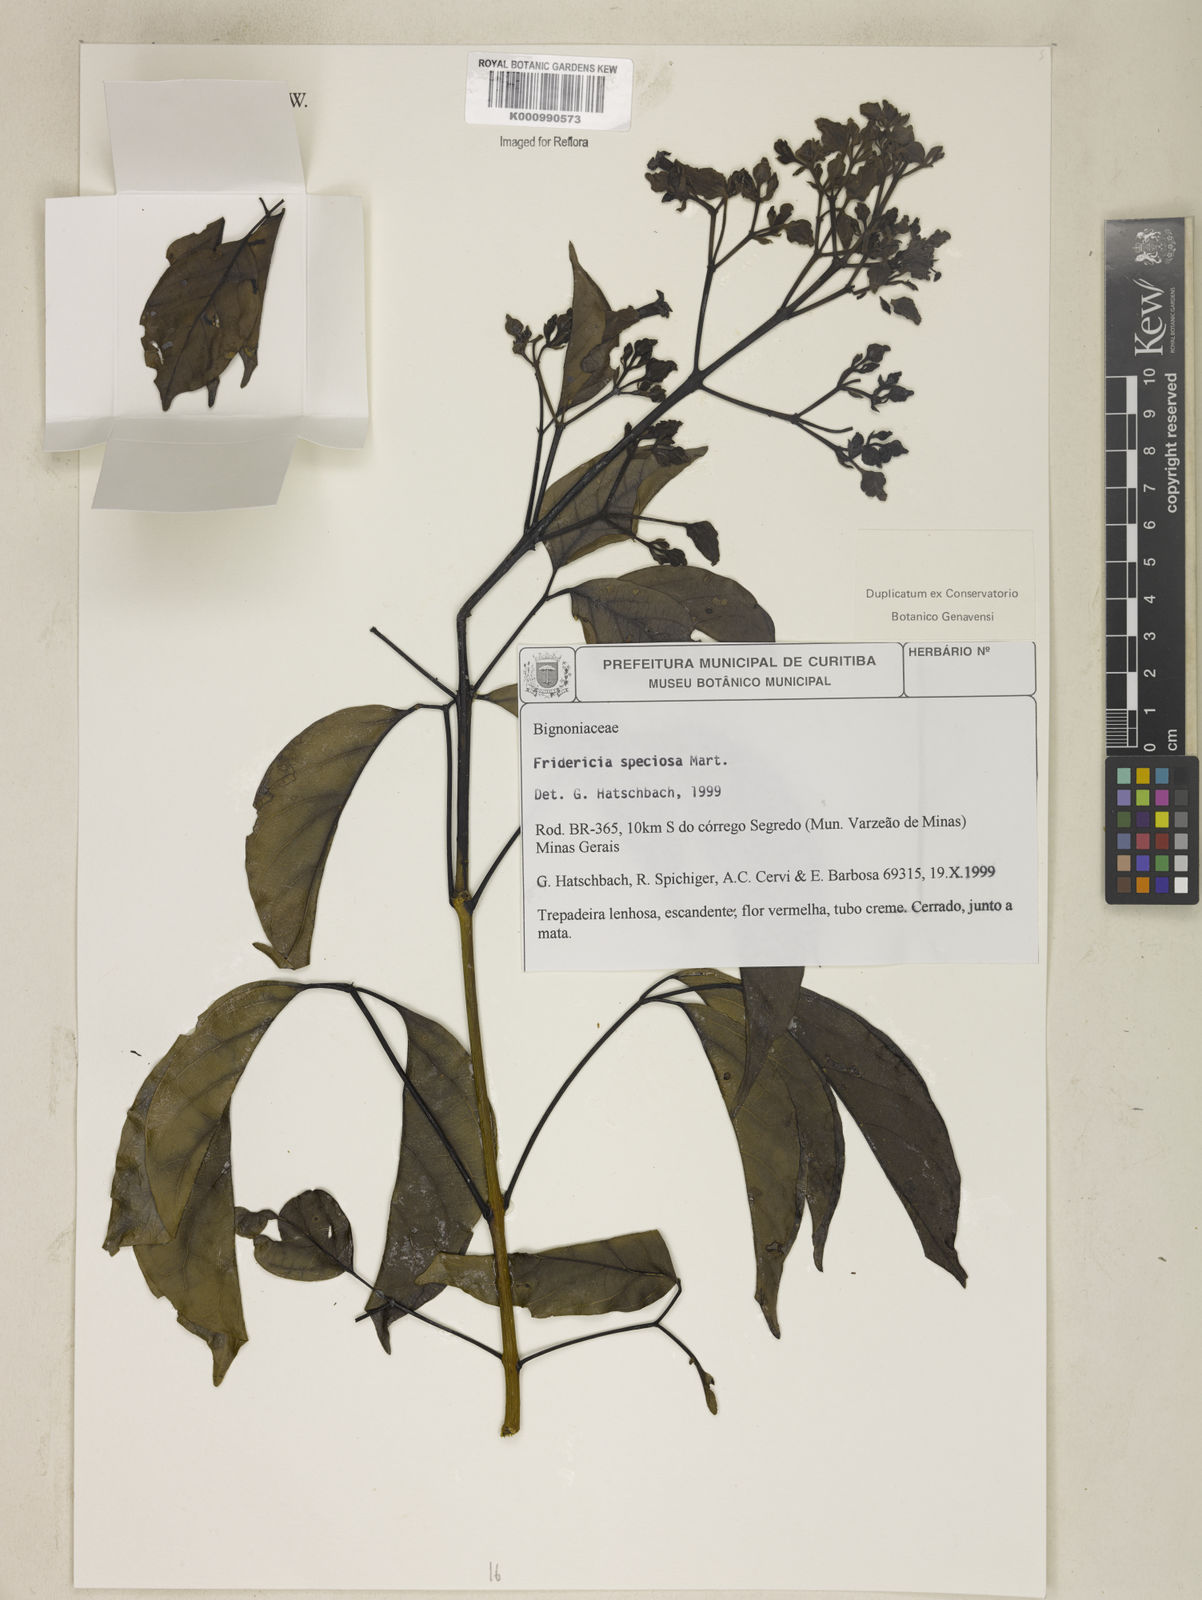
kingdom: Plantae
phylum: Tracheophyta
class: Magnoliopsida
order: Lamiales
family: Bignoniaceae
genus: Fridericia
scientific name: Fridericia speciosa
